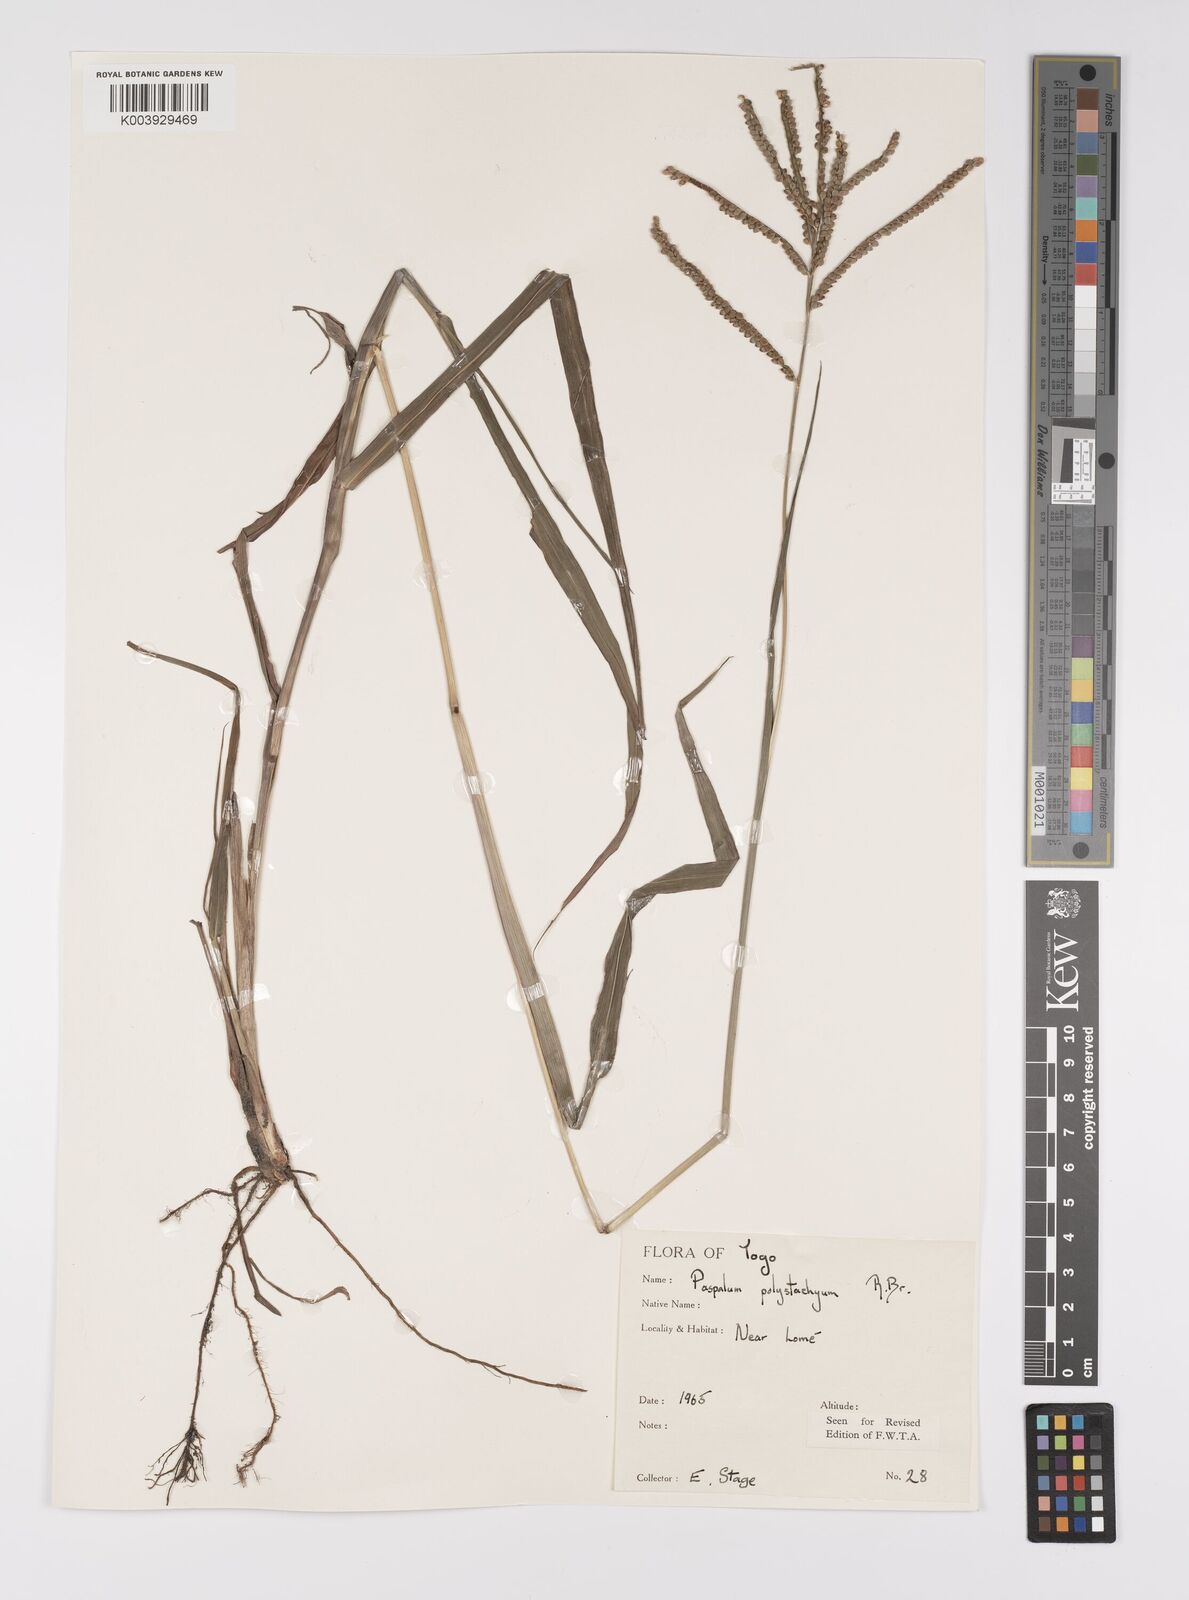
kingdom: Plantae
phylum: Tracheophyta
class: Liliopsida
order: Poales
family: Poaceae
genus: Paspalum
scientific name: Paspalum scrobiculatum
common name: Kodo millet
